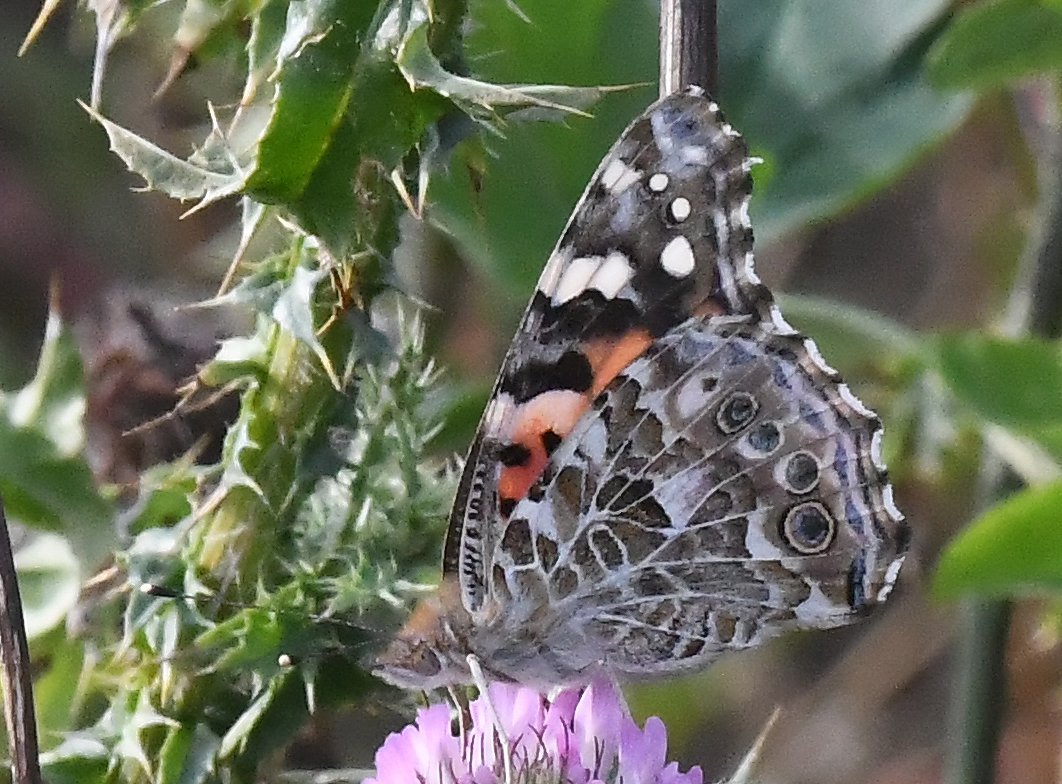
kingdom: Animalia
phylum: Arthropoda
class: Insecta
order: Lepidoptera
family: Nymphalidae
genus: Vanessa
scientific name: Vanessa cardui
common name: Painted Lady
